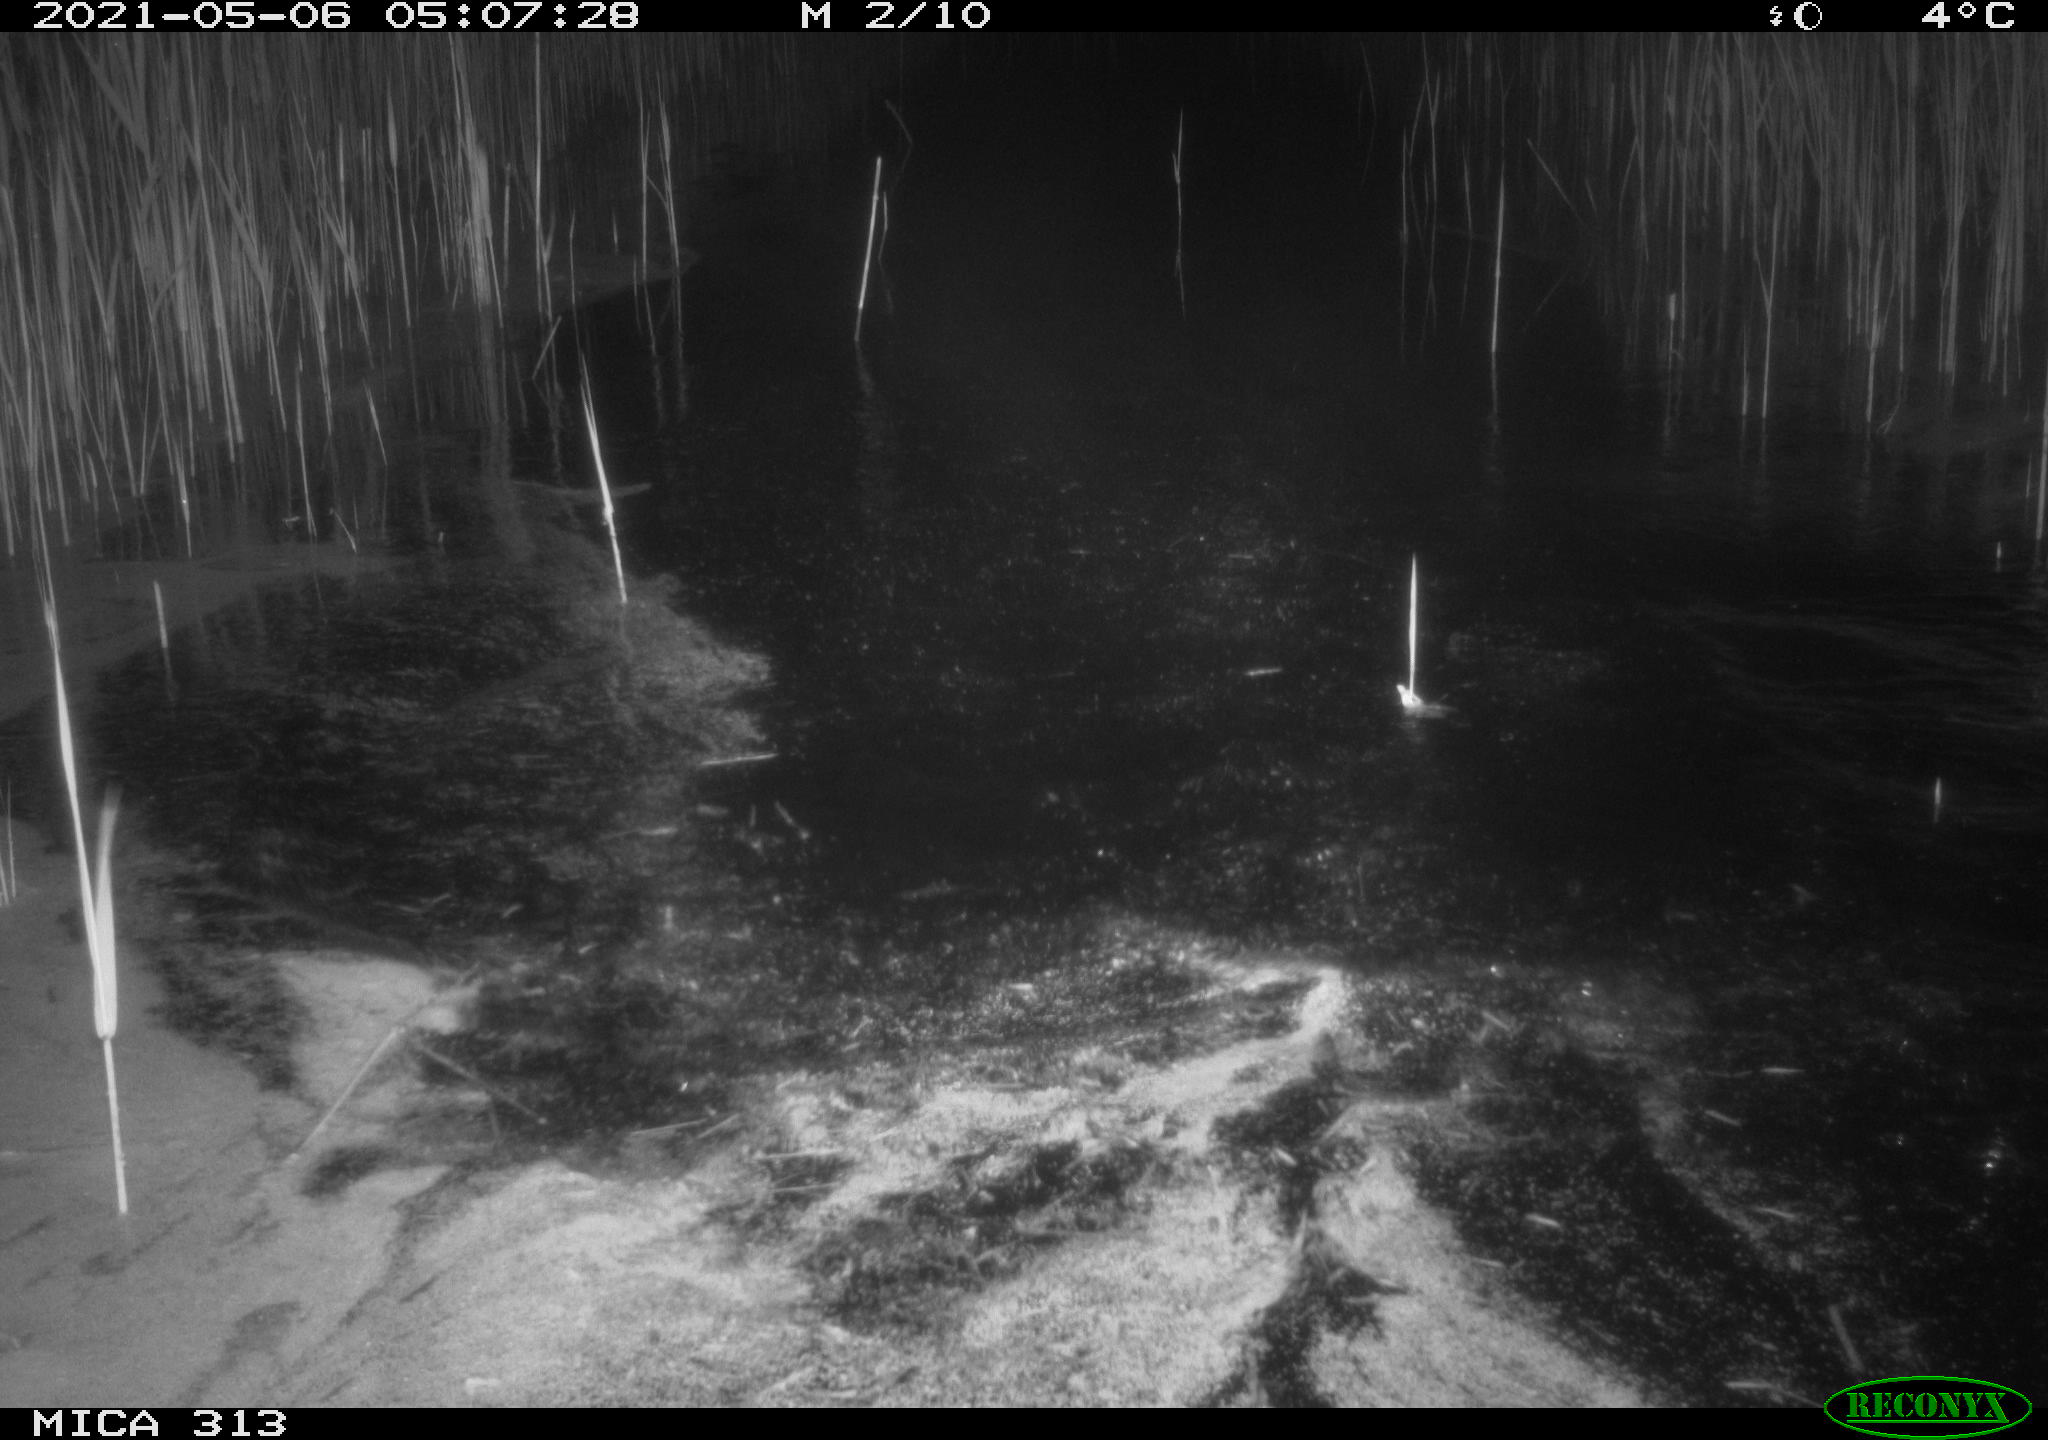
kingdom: Animalia
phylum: Chordata
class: Aves
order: Anseriformes
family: Anatidae
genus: Anas
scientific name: Anas platyrhynchos
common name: Mallard
